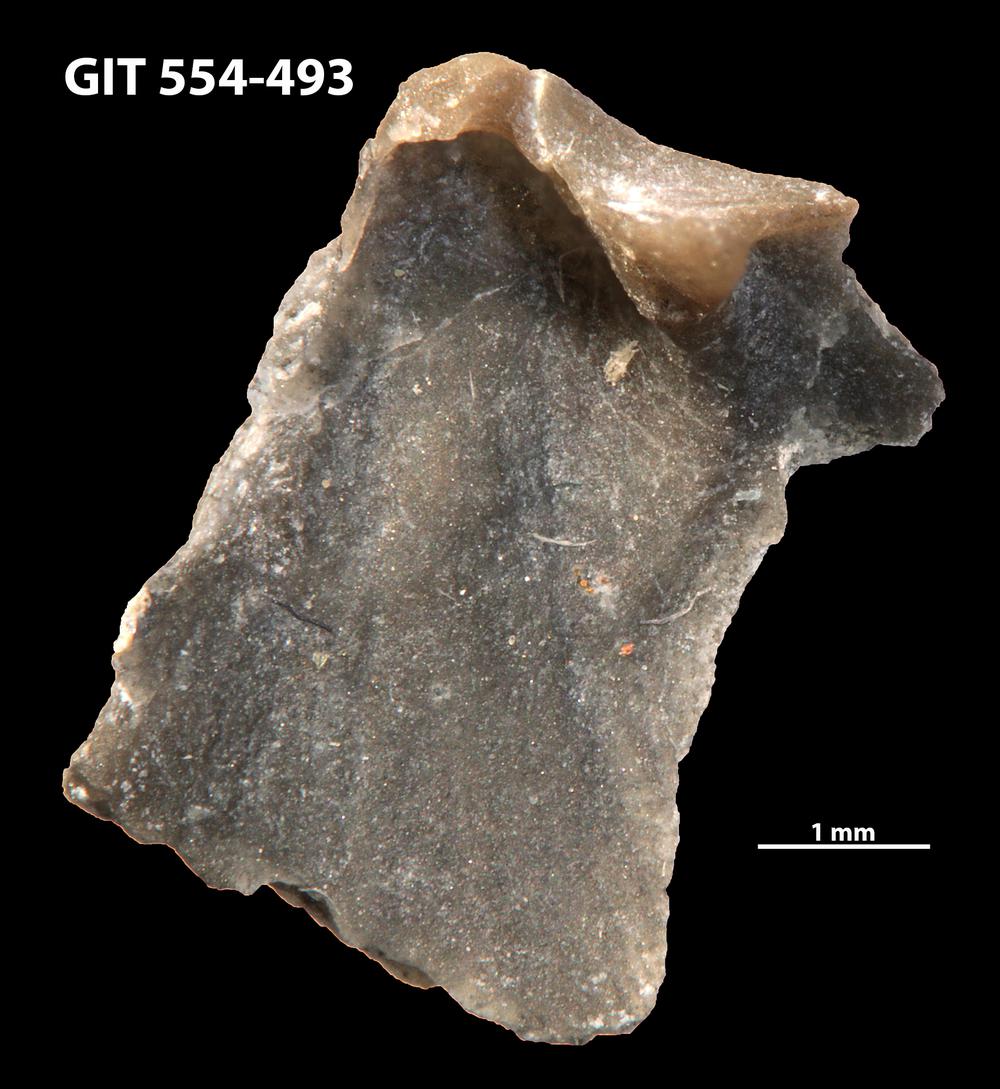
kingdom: Animalia
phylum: Brachiopoda
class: Rhynchonellata
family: Dalmanellidae
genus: Isorthis
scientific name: Isorthis parvulus
